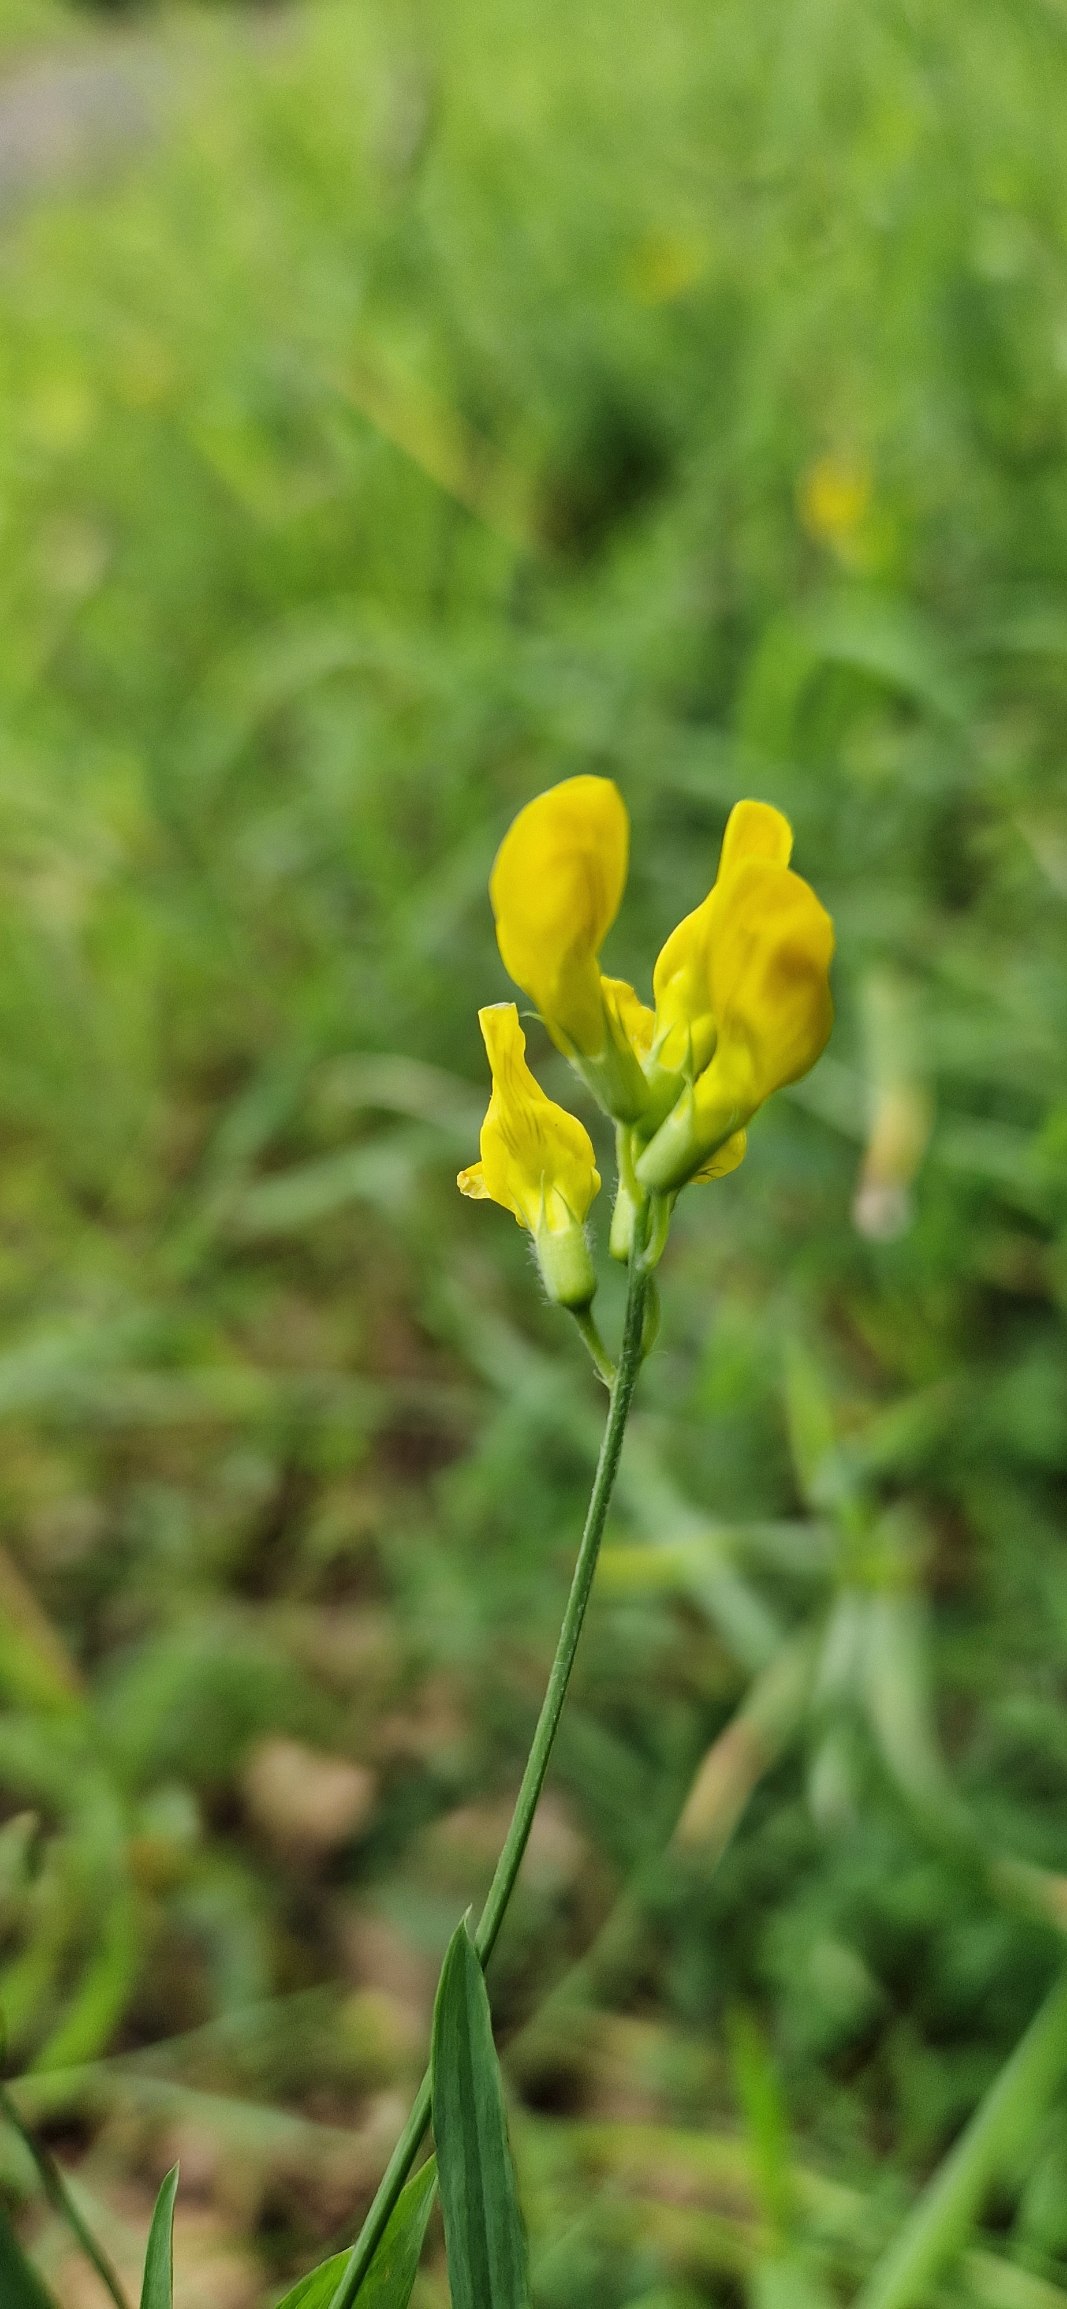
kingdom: Plantae
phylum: Tracheophyta
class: Magnoliopsida
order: Fabales
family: Fabaceae
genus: Lathyrus
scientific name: Lathyrus pratensis
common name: Gul fladbælg
